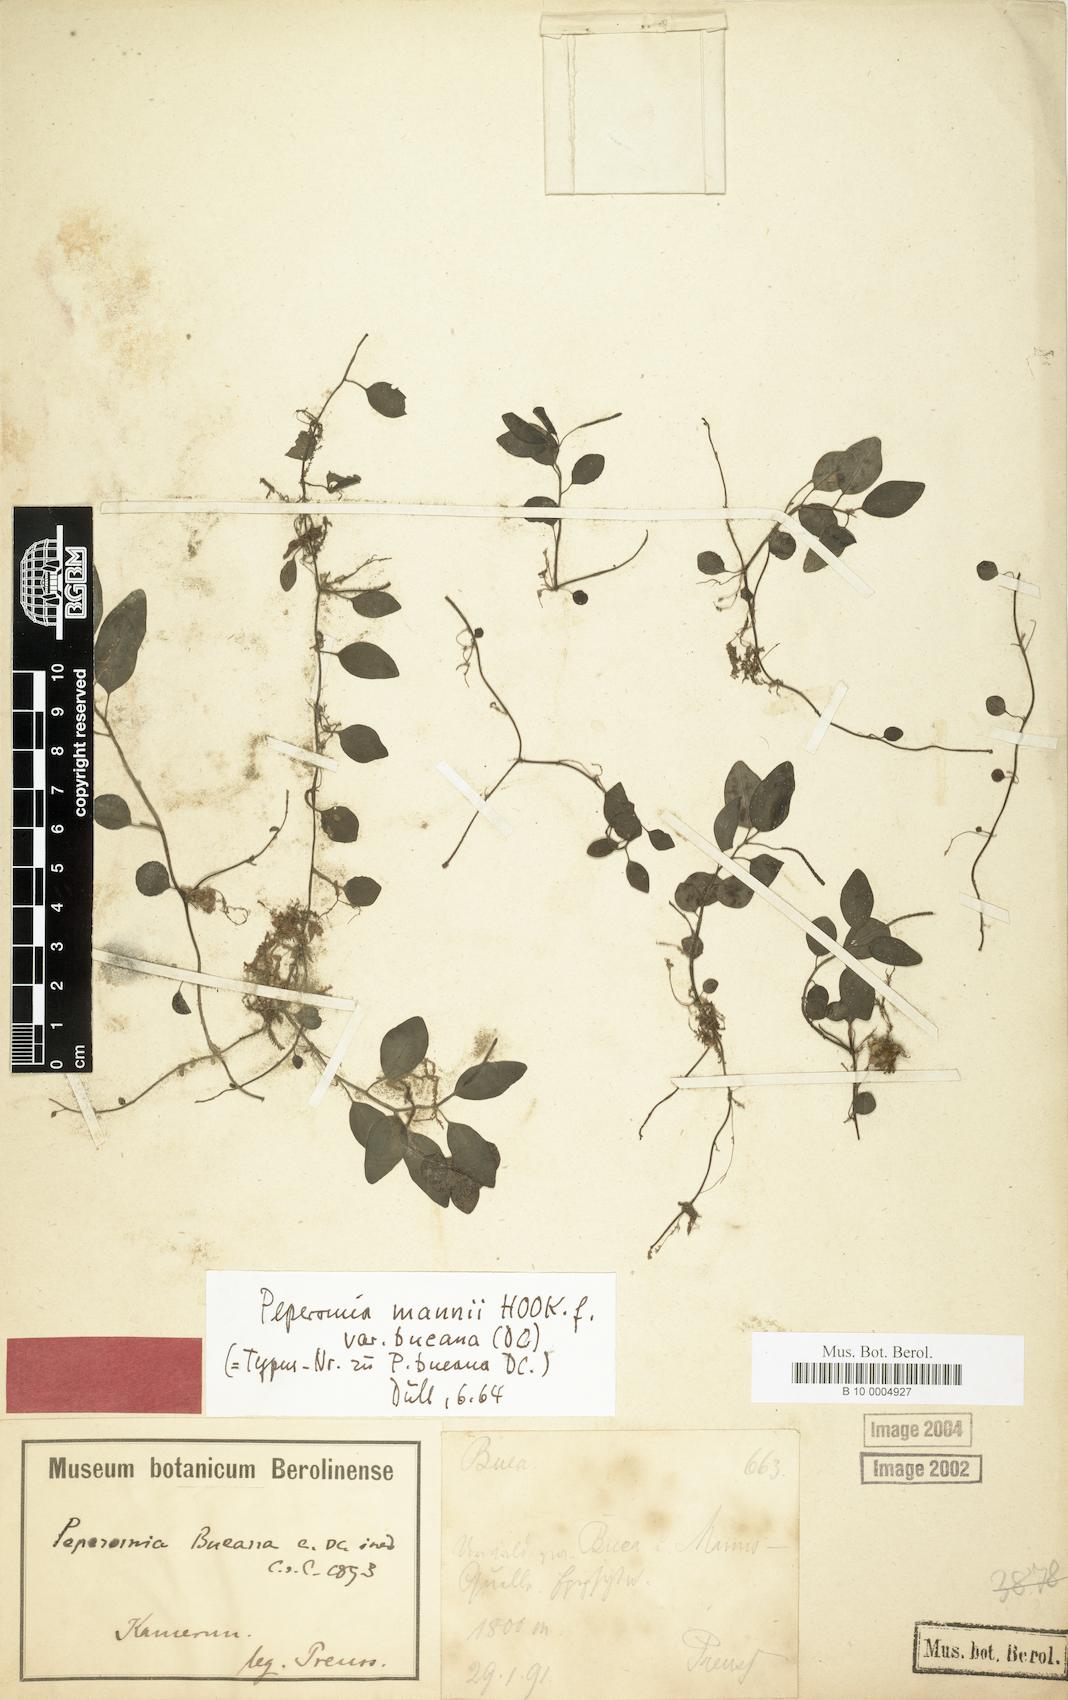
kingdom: Plantae
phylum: Tracheophyta
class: Magnoliopsida
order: Piperales
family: Piperaceae
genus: Peperomia
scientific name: Peperomia retusa
